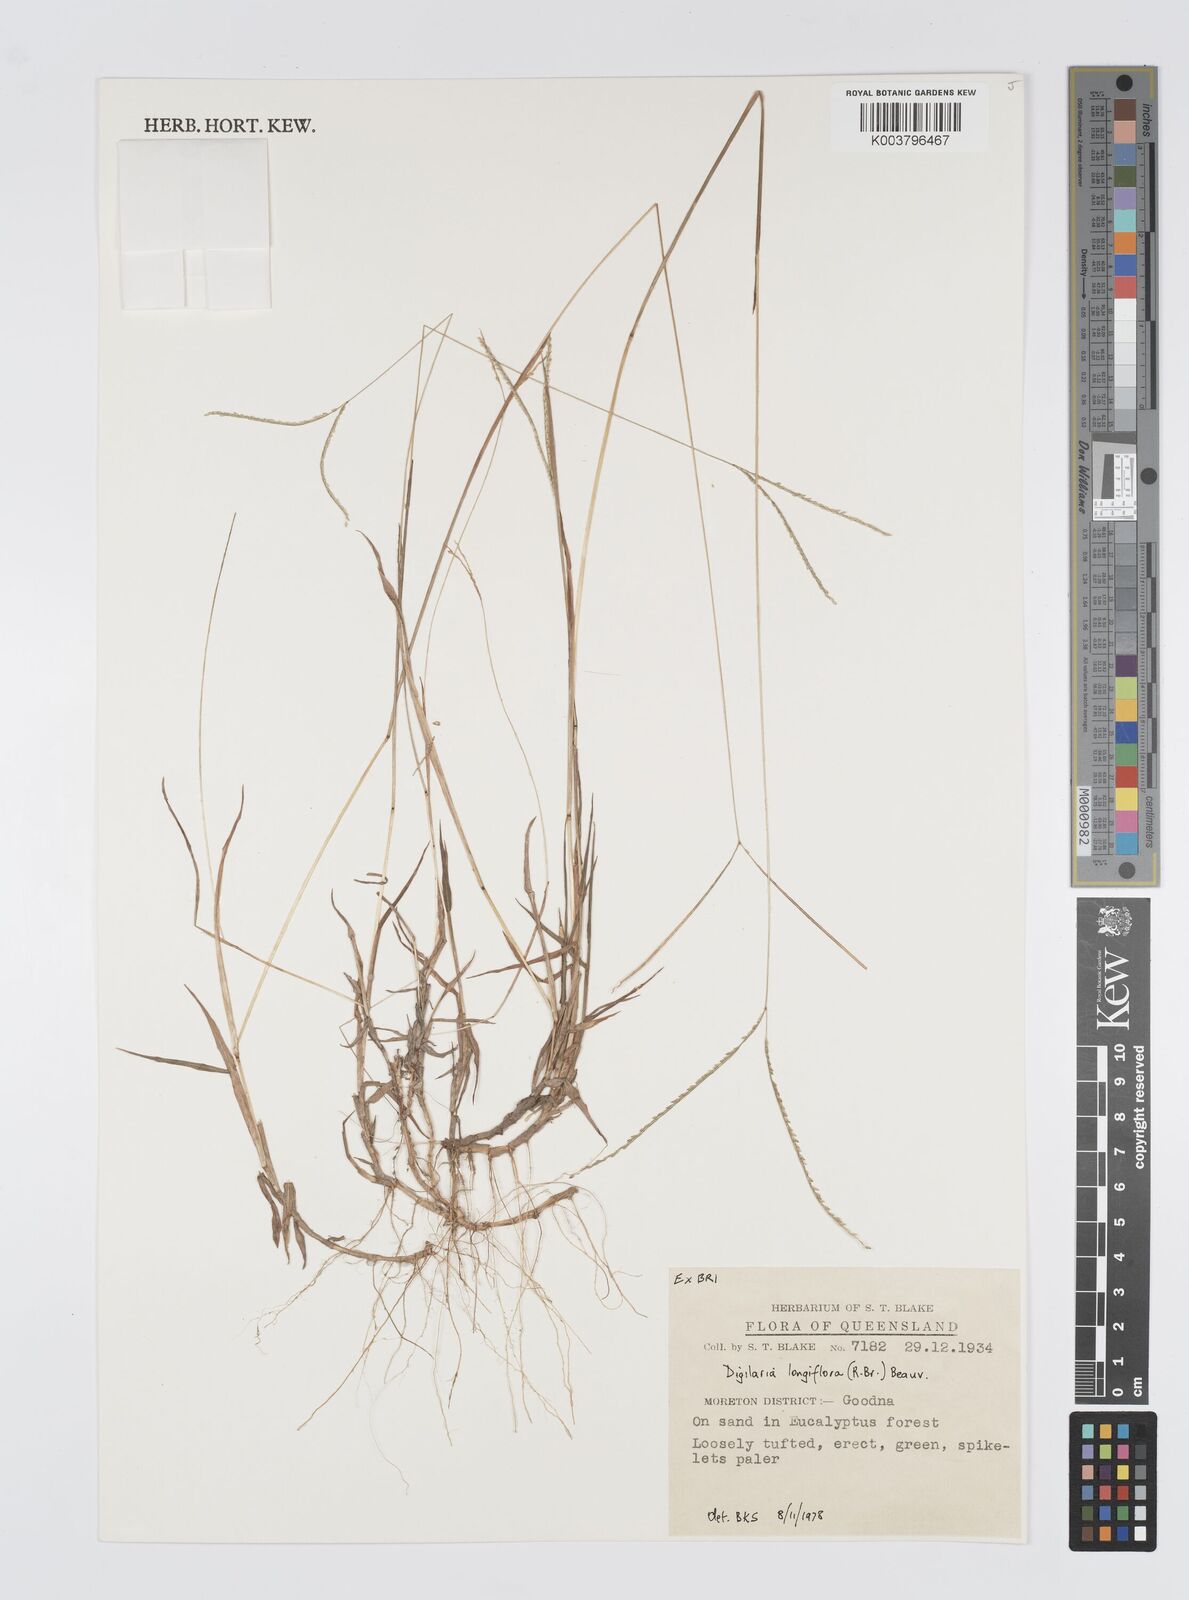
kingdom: Plantae
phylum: Tracheophyta
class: Liliopsida
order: Poales
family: Poaceae
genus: Digitaria
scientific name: Digitaria longiflora
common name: Wire crabgrass
